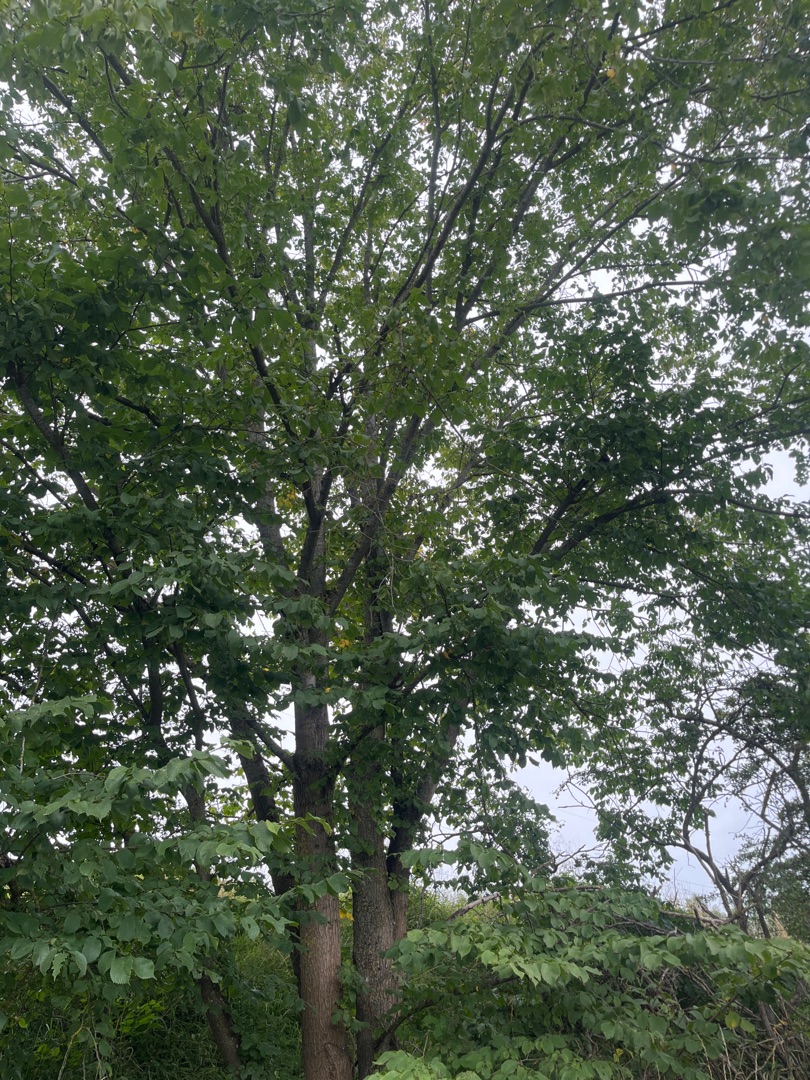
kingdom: Plantae
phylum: Tracheophyta
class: Magnoliopsida
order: Rosales
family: Ulmaceae
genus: Ulmus
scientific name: Ulmus glabra
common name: Skov-elm/storbladet elm
